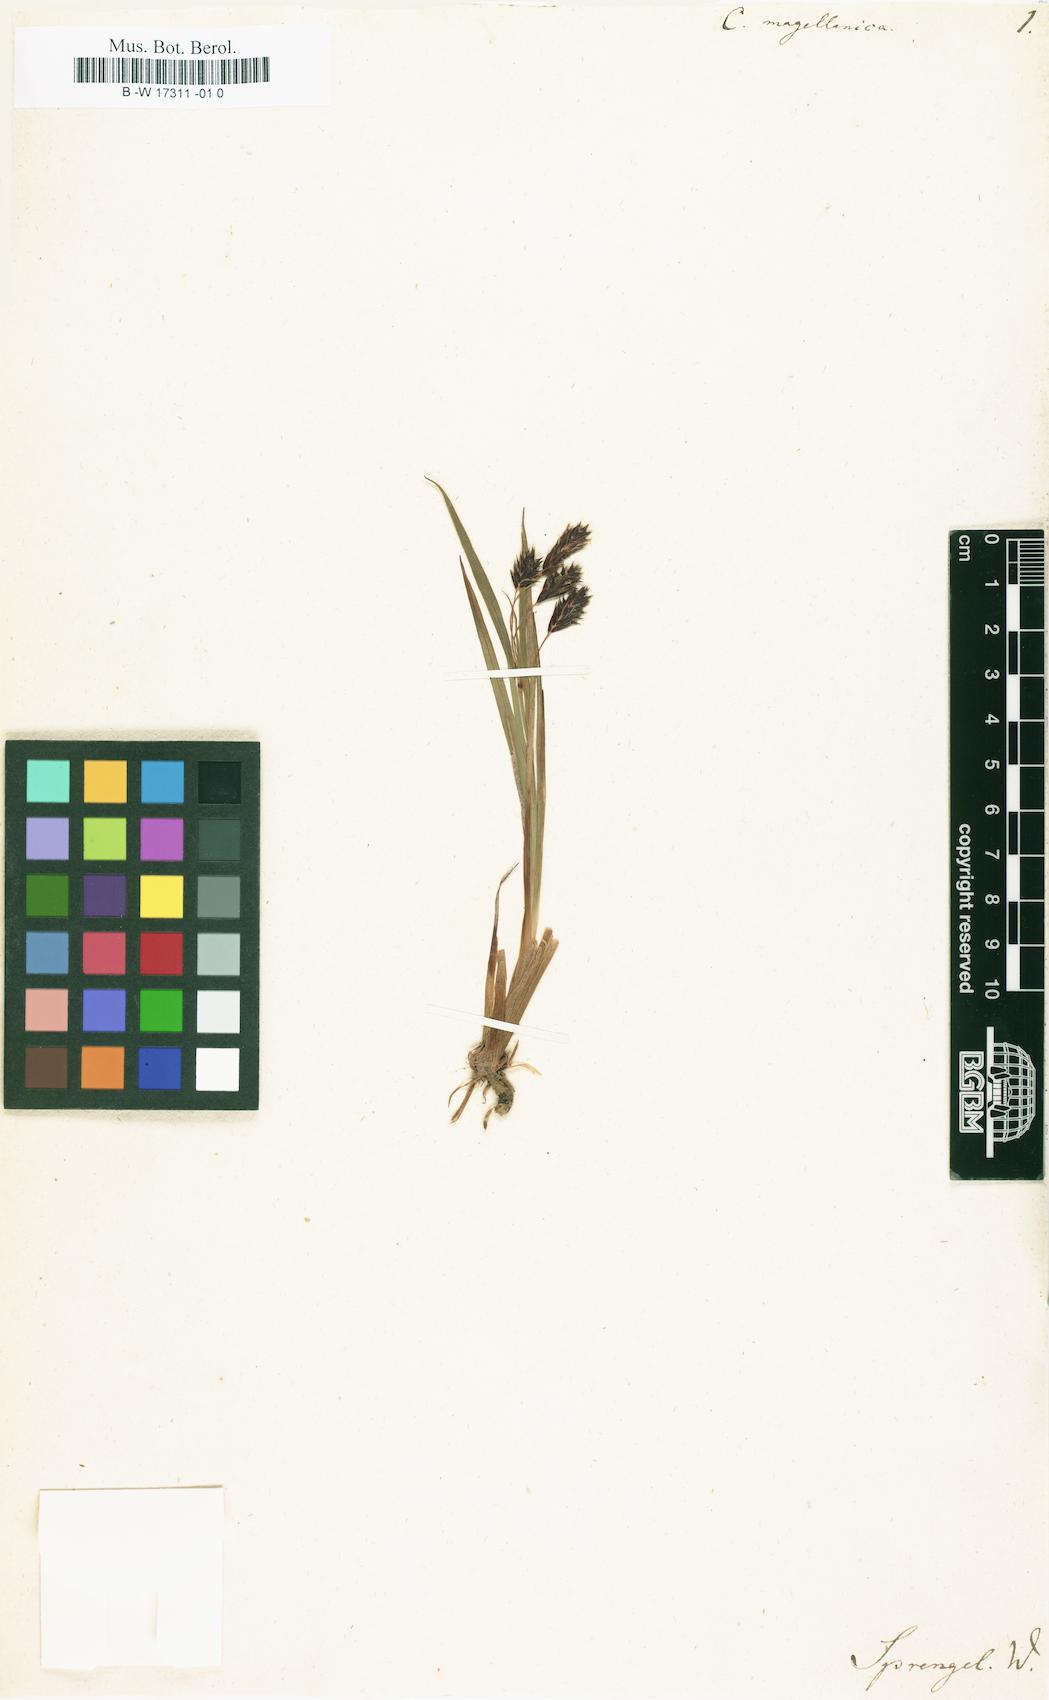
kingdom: Plantae
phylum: Tracheophyta
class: Liliopsida
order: Poales
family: Cyperaceae
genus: Carex
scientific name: Carex magellanica
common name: Bog sedge
